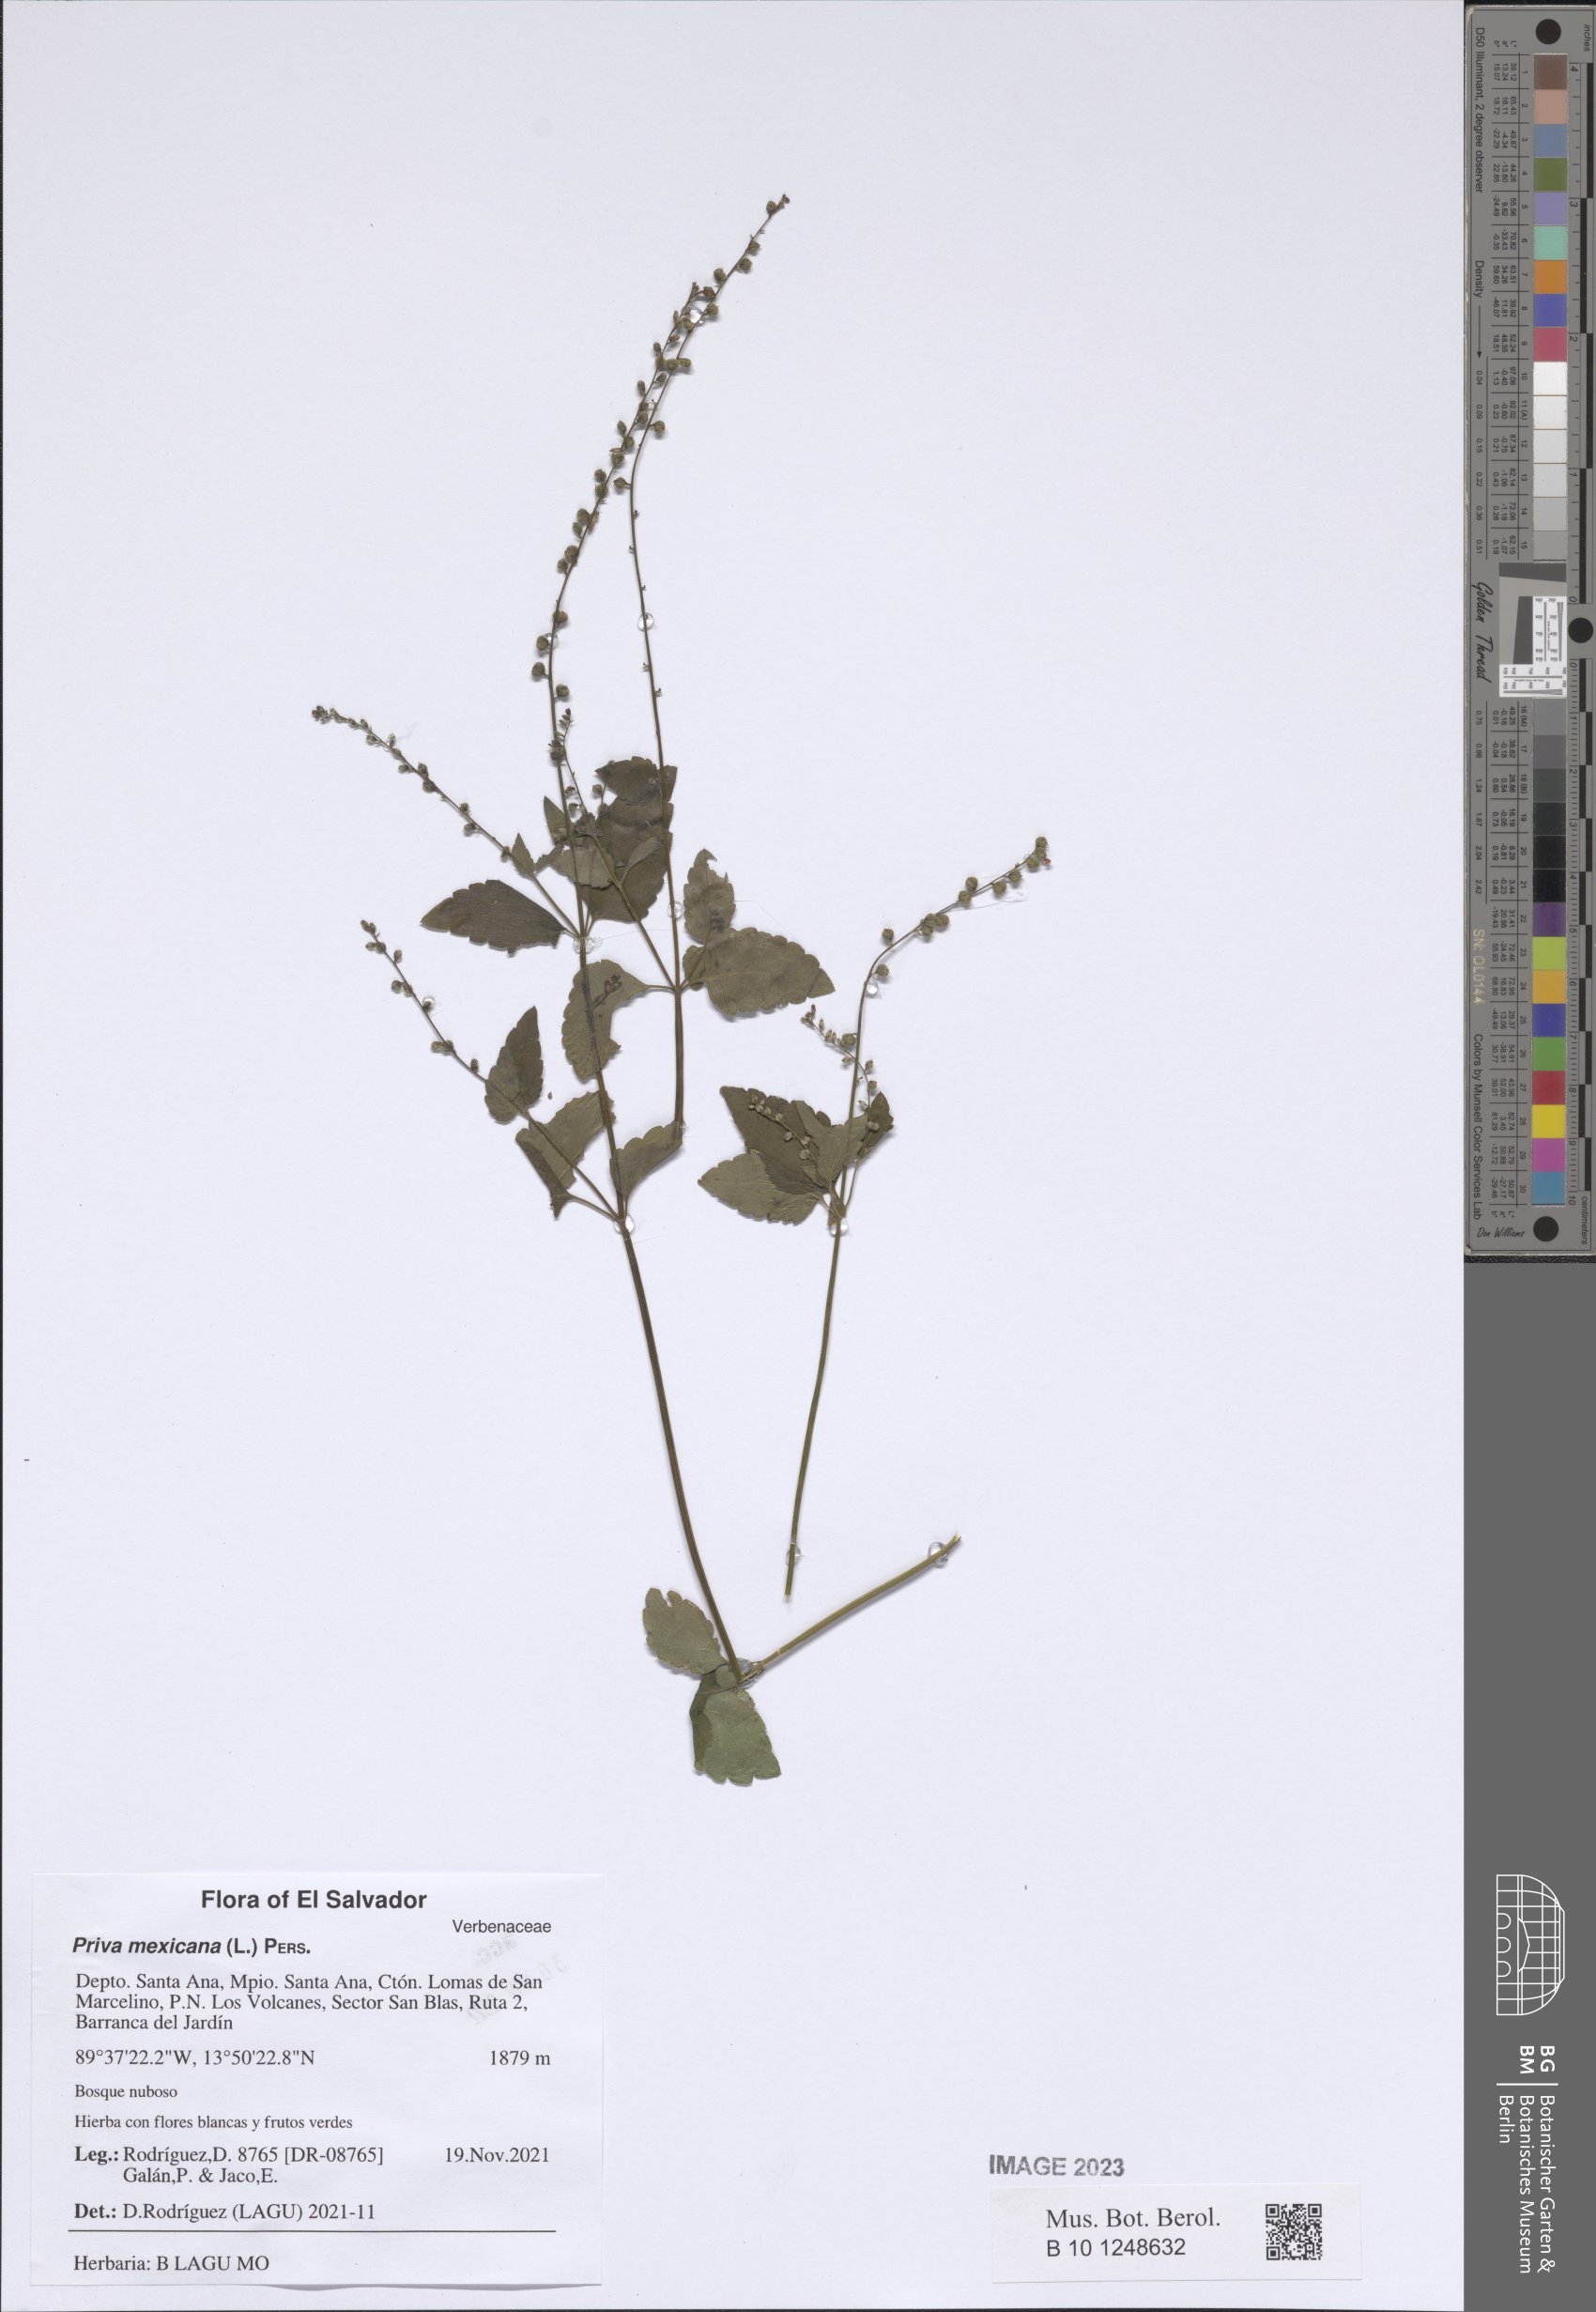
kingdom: Plantae
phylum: Tracheophyta
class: Magnoliopsida
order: Lamiales
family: Verbenaceae
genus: Priva
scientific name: Priva mexicana
